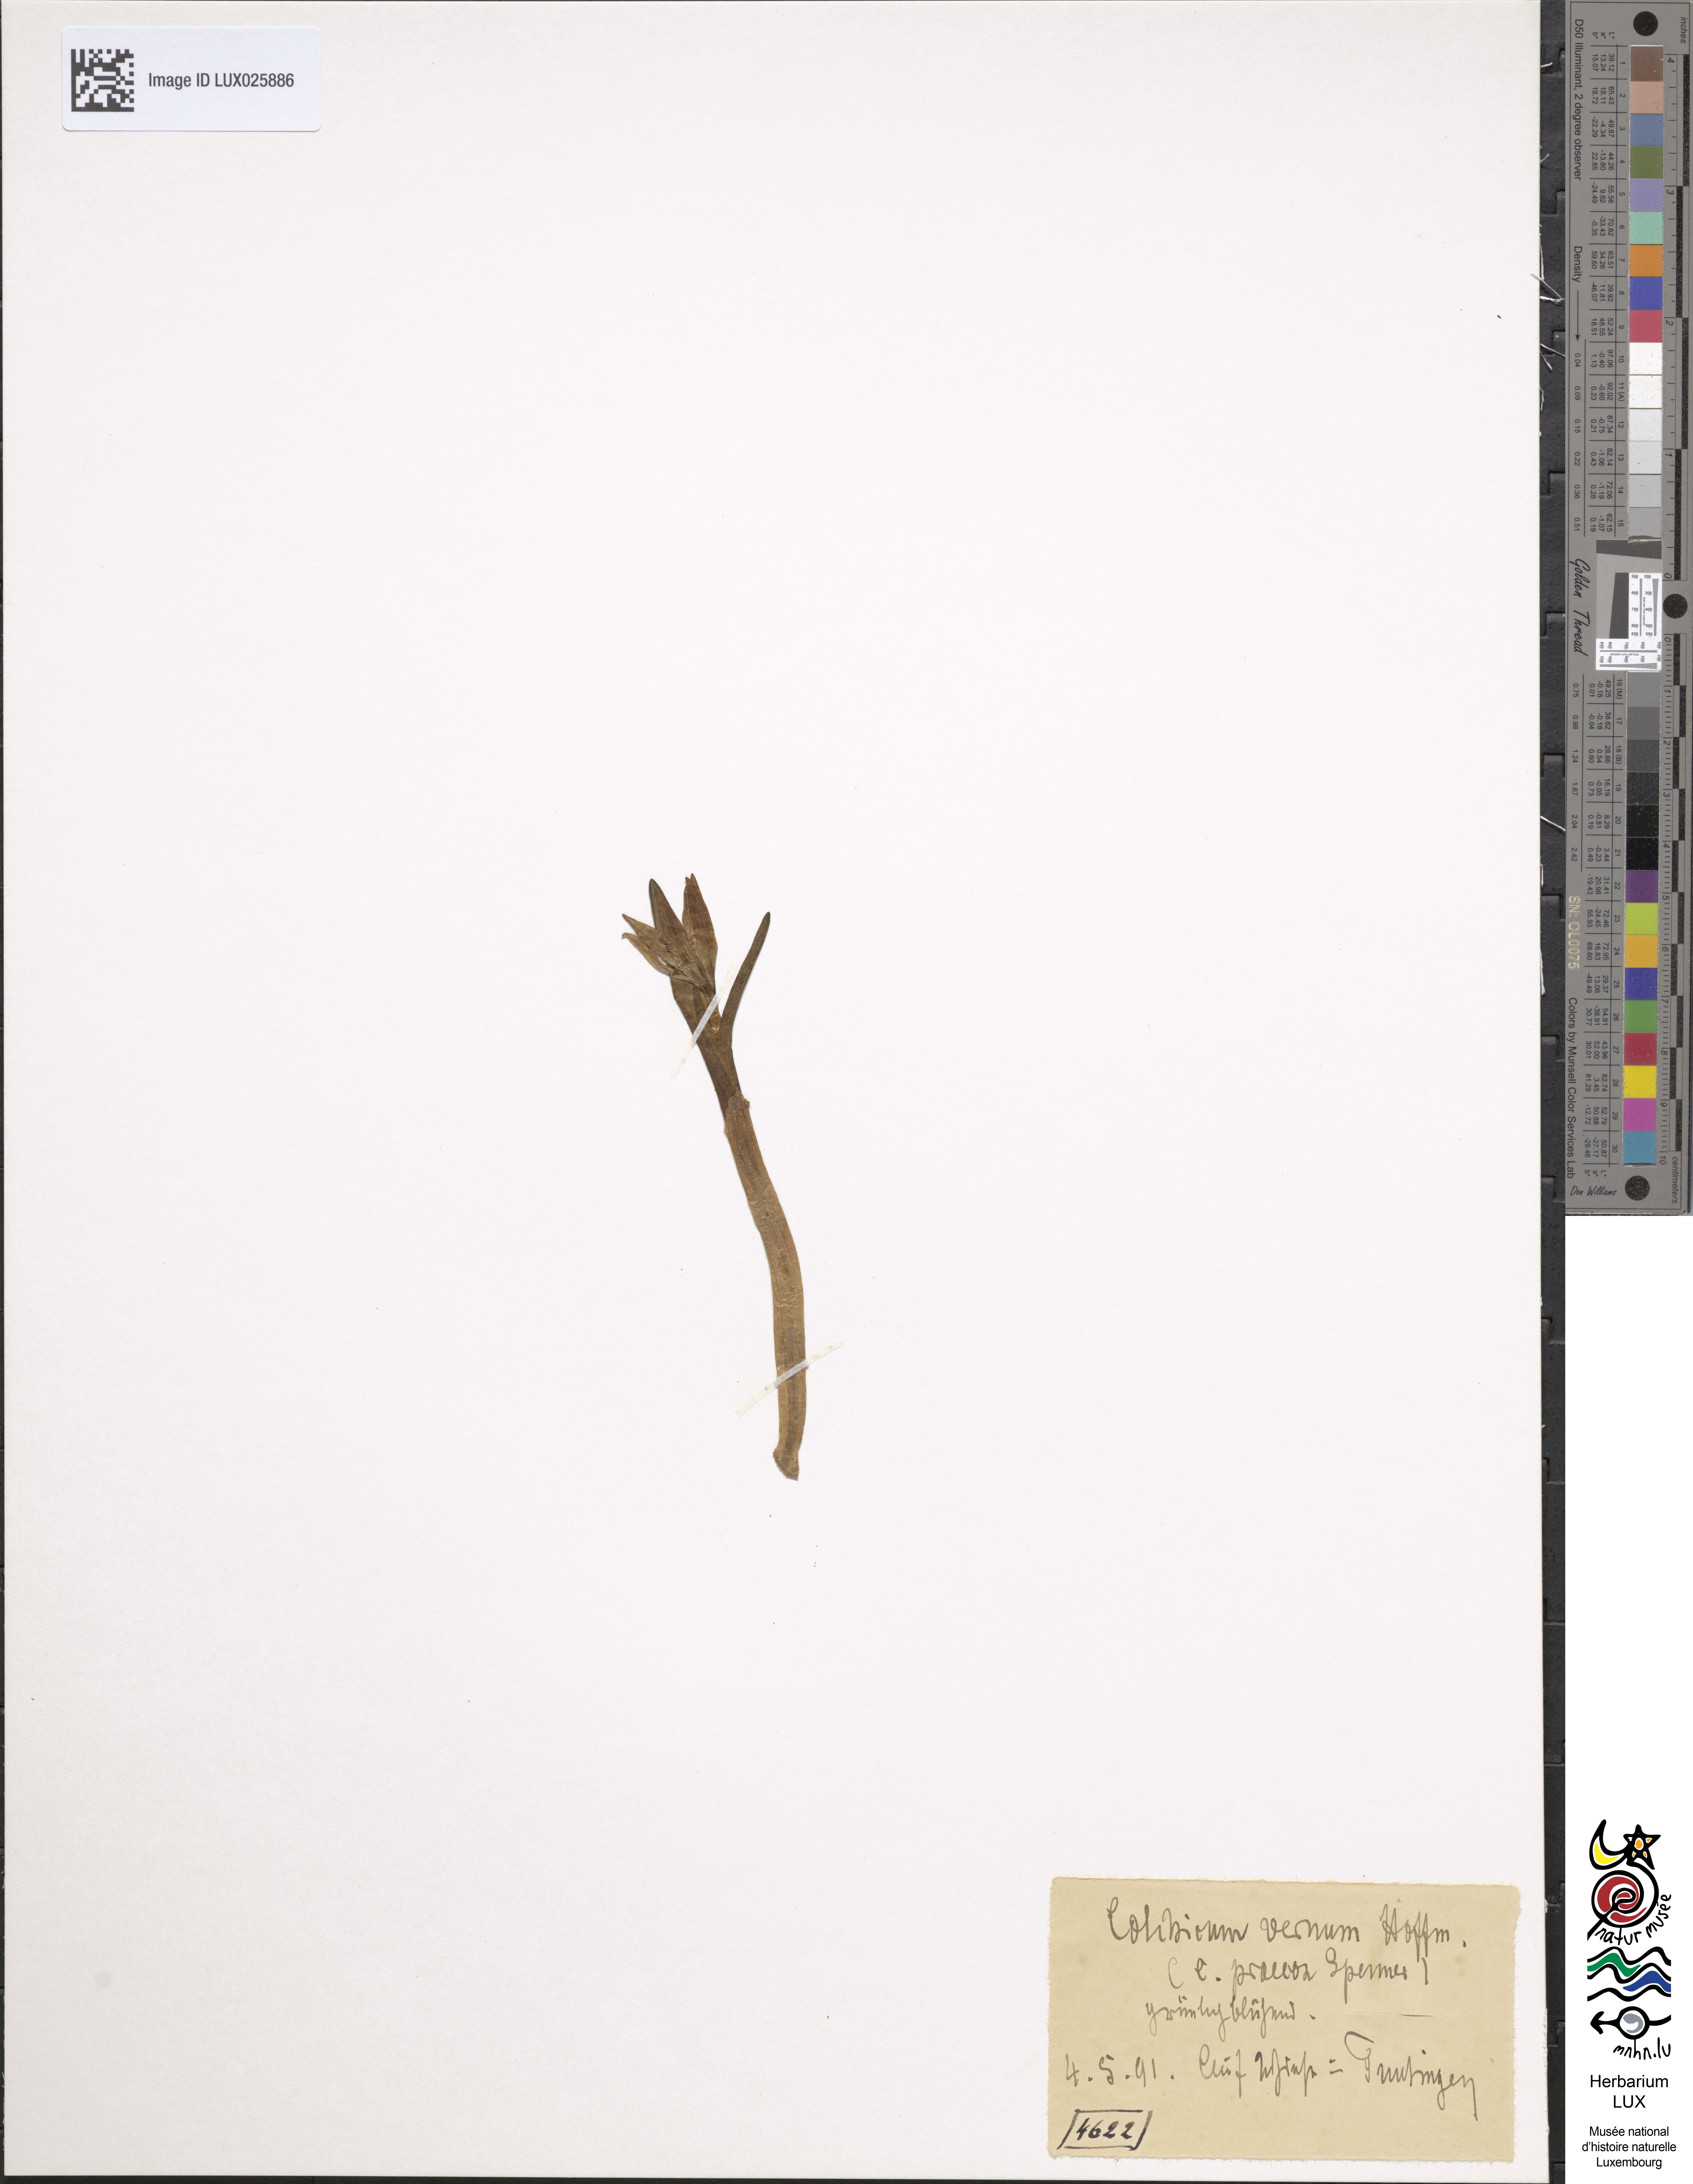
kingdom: Plantae
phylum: Tracheophyta
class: Liliopsida
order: Liliales
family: Colchicaceae
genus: Colchicum
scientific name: Colchicum autumnale
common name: Autumn crocus
